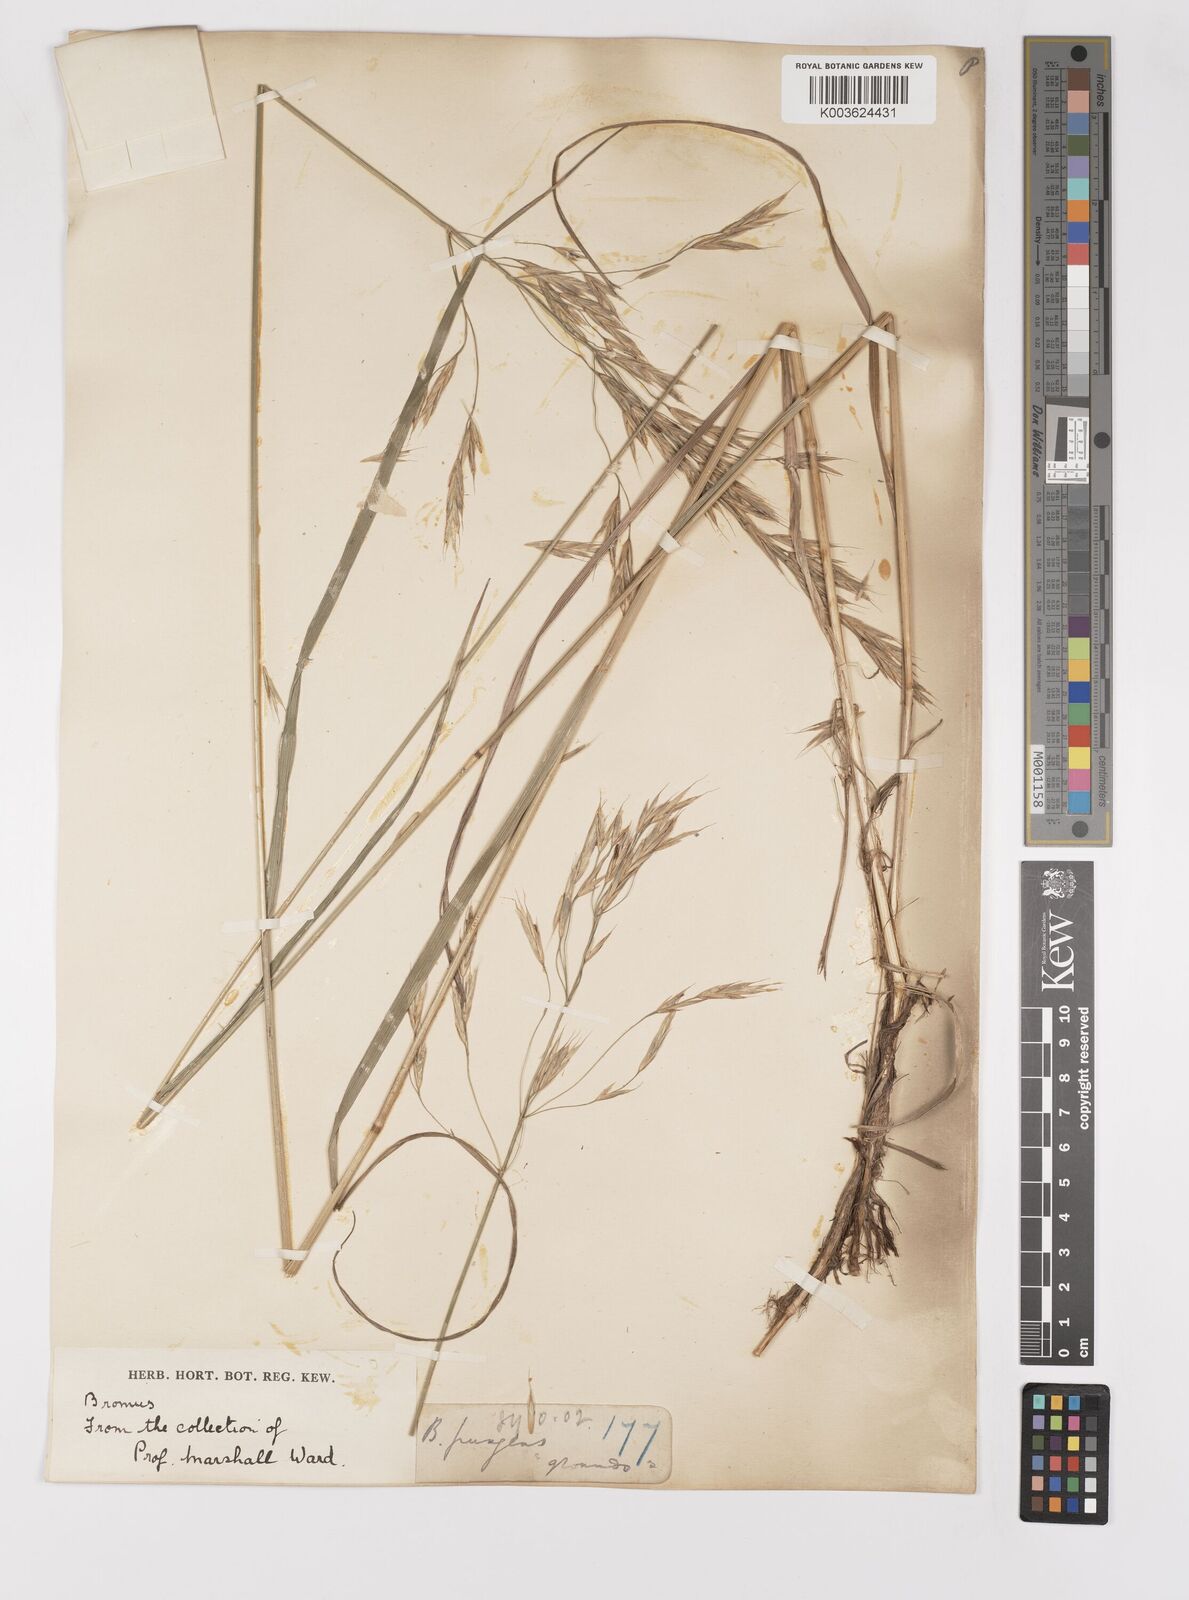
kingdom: Plantae
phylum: Tracheophyta
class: Liliopsida
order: Poales
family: Poaceae
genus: Bromus
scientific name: Bromus
